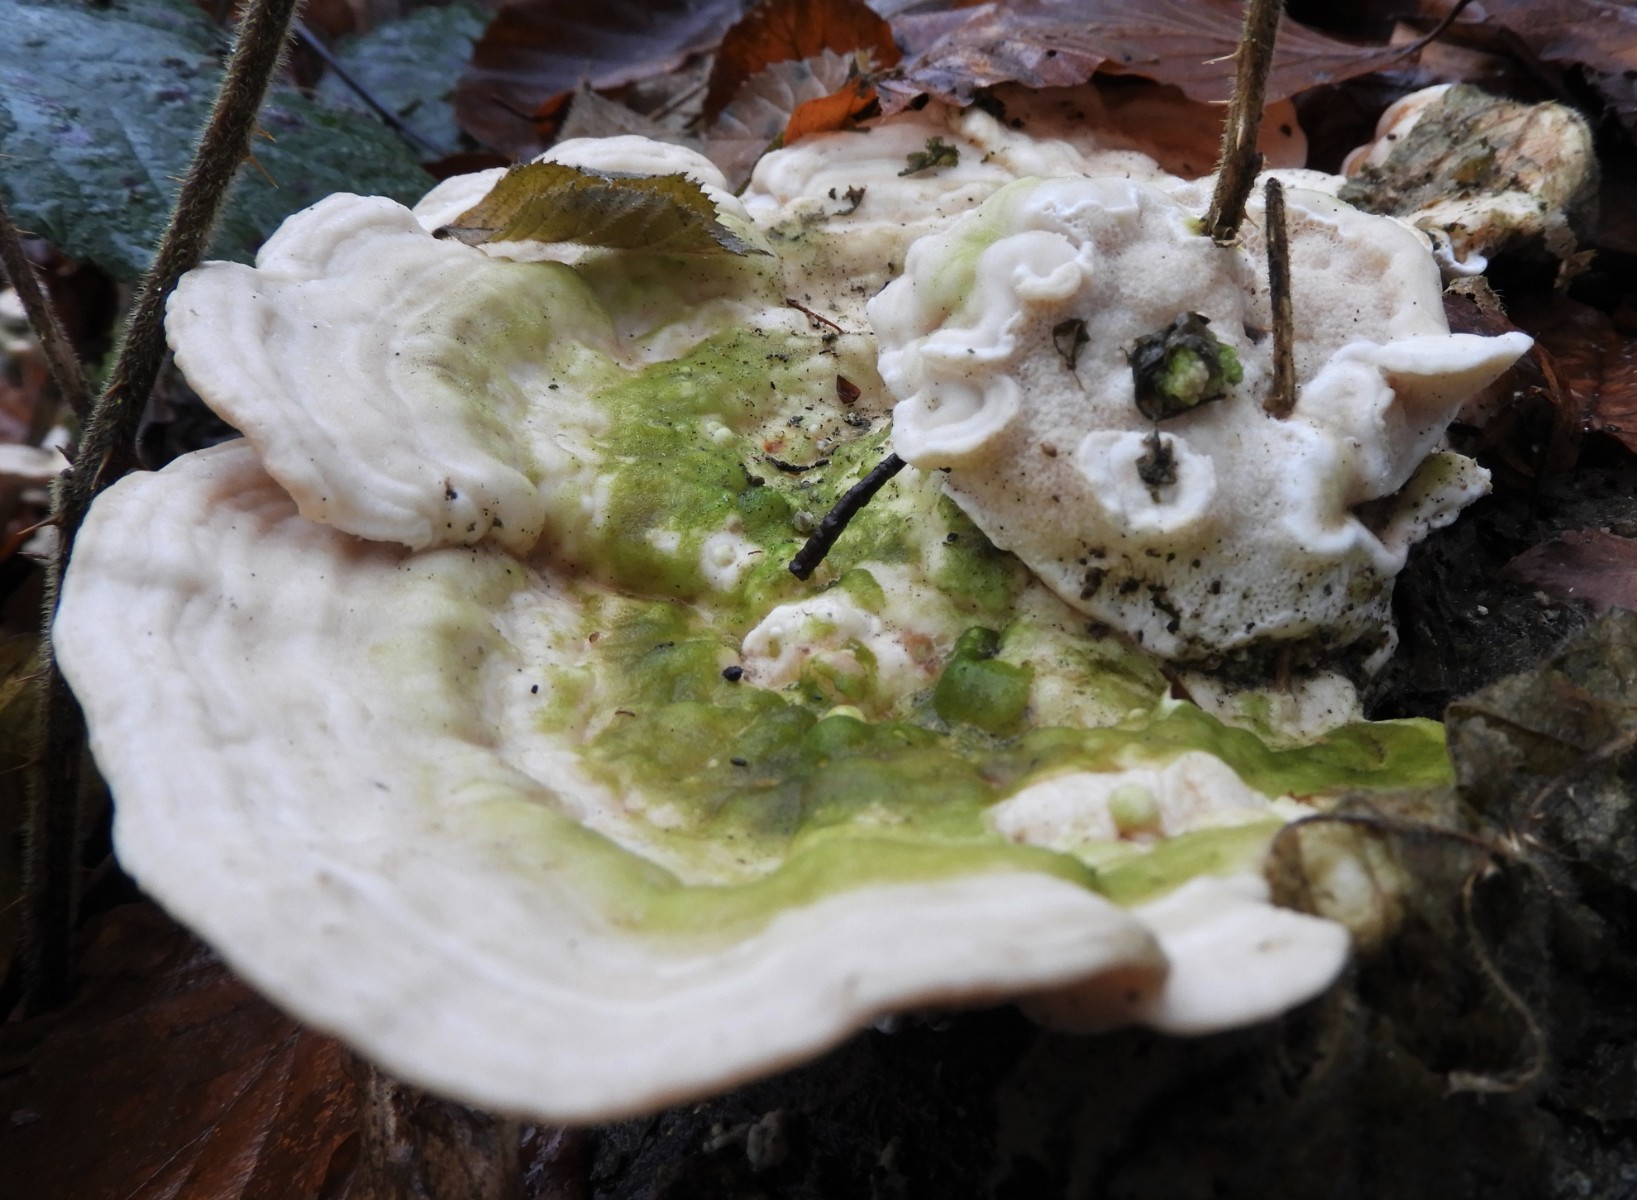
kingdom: Fungi
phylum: Basidiomycota
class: Agaricomycetes
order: Polyporales
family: Polyporaceae
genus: Trametes
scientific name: Trametes gibbosa
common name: puklet læderporesvamp
